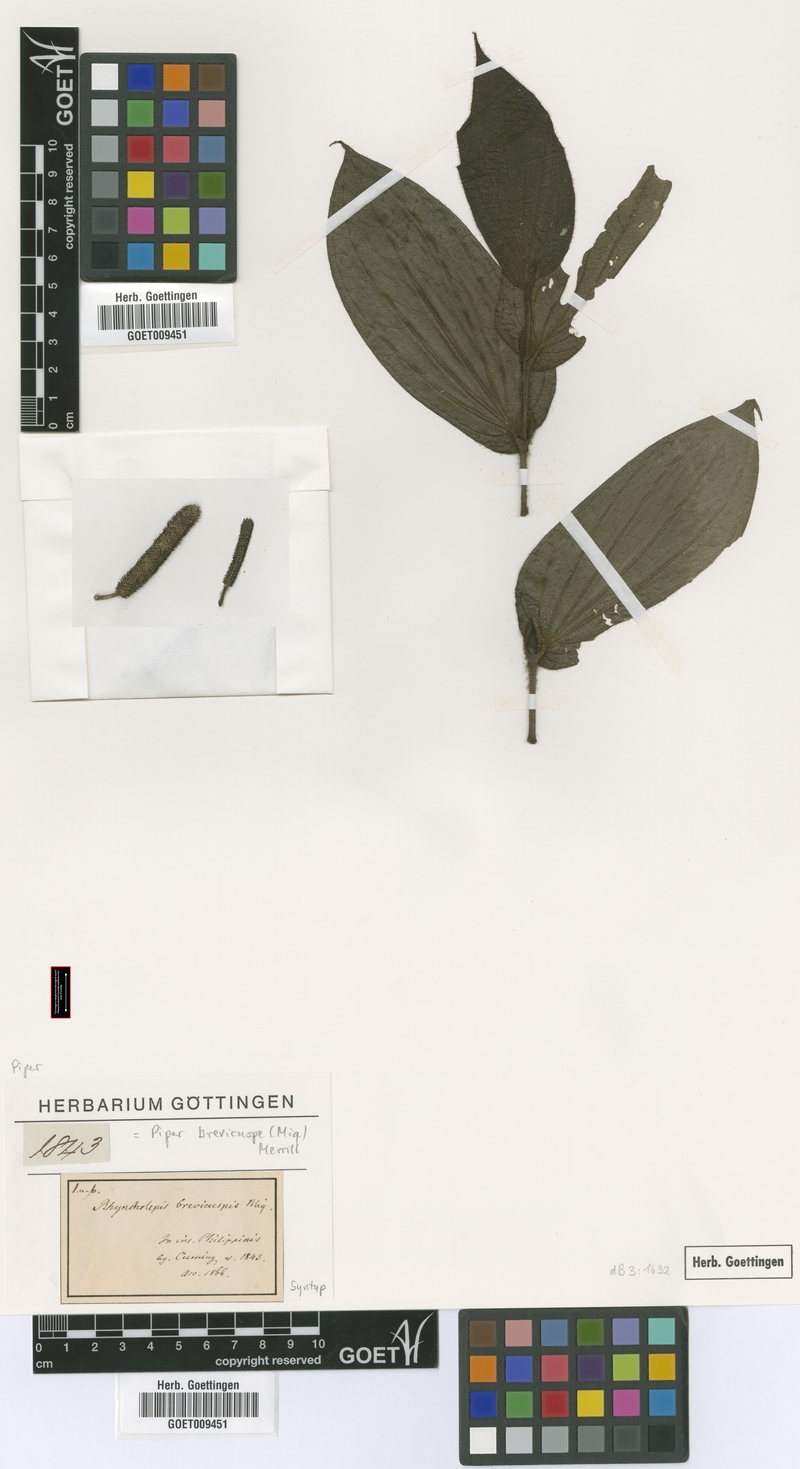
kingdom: Plantae
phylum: Tracheophyta
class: Magnoliopsida
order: Piperales
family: Piperaceae
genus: Piper
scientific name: Piper brevicuspe
